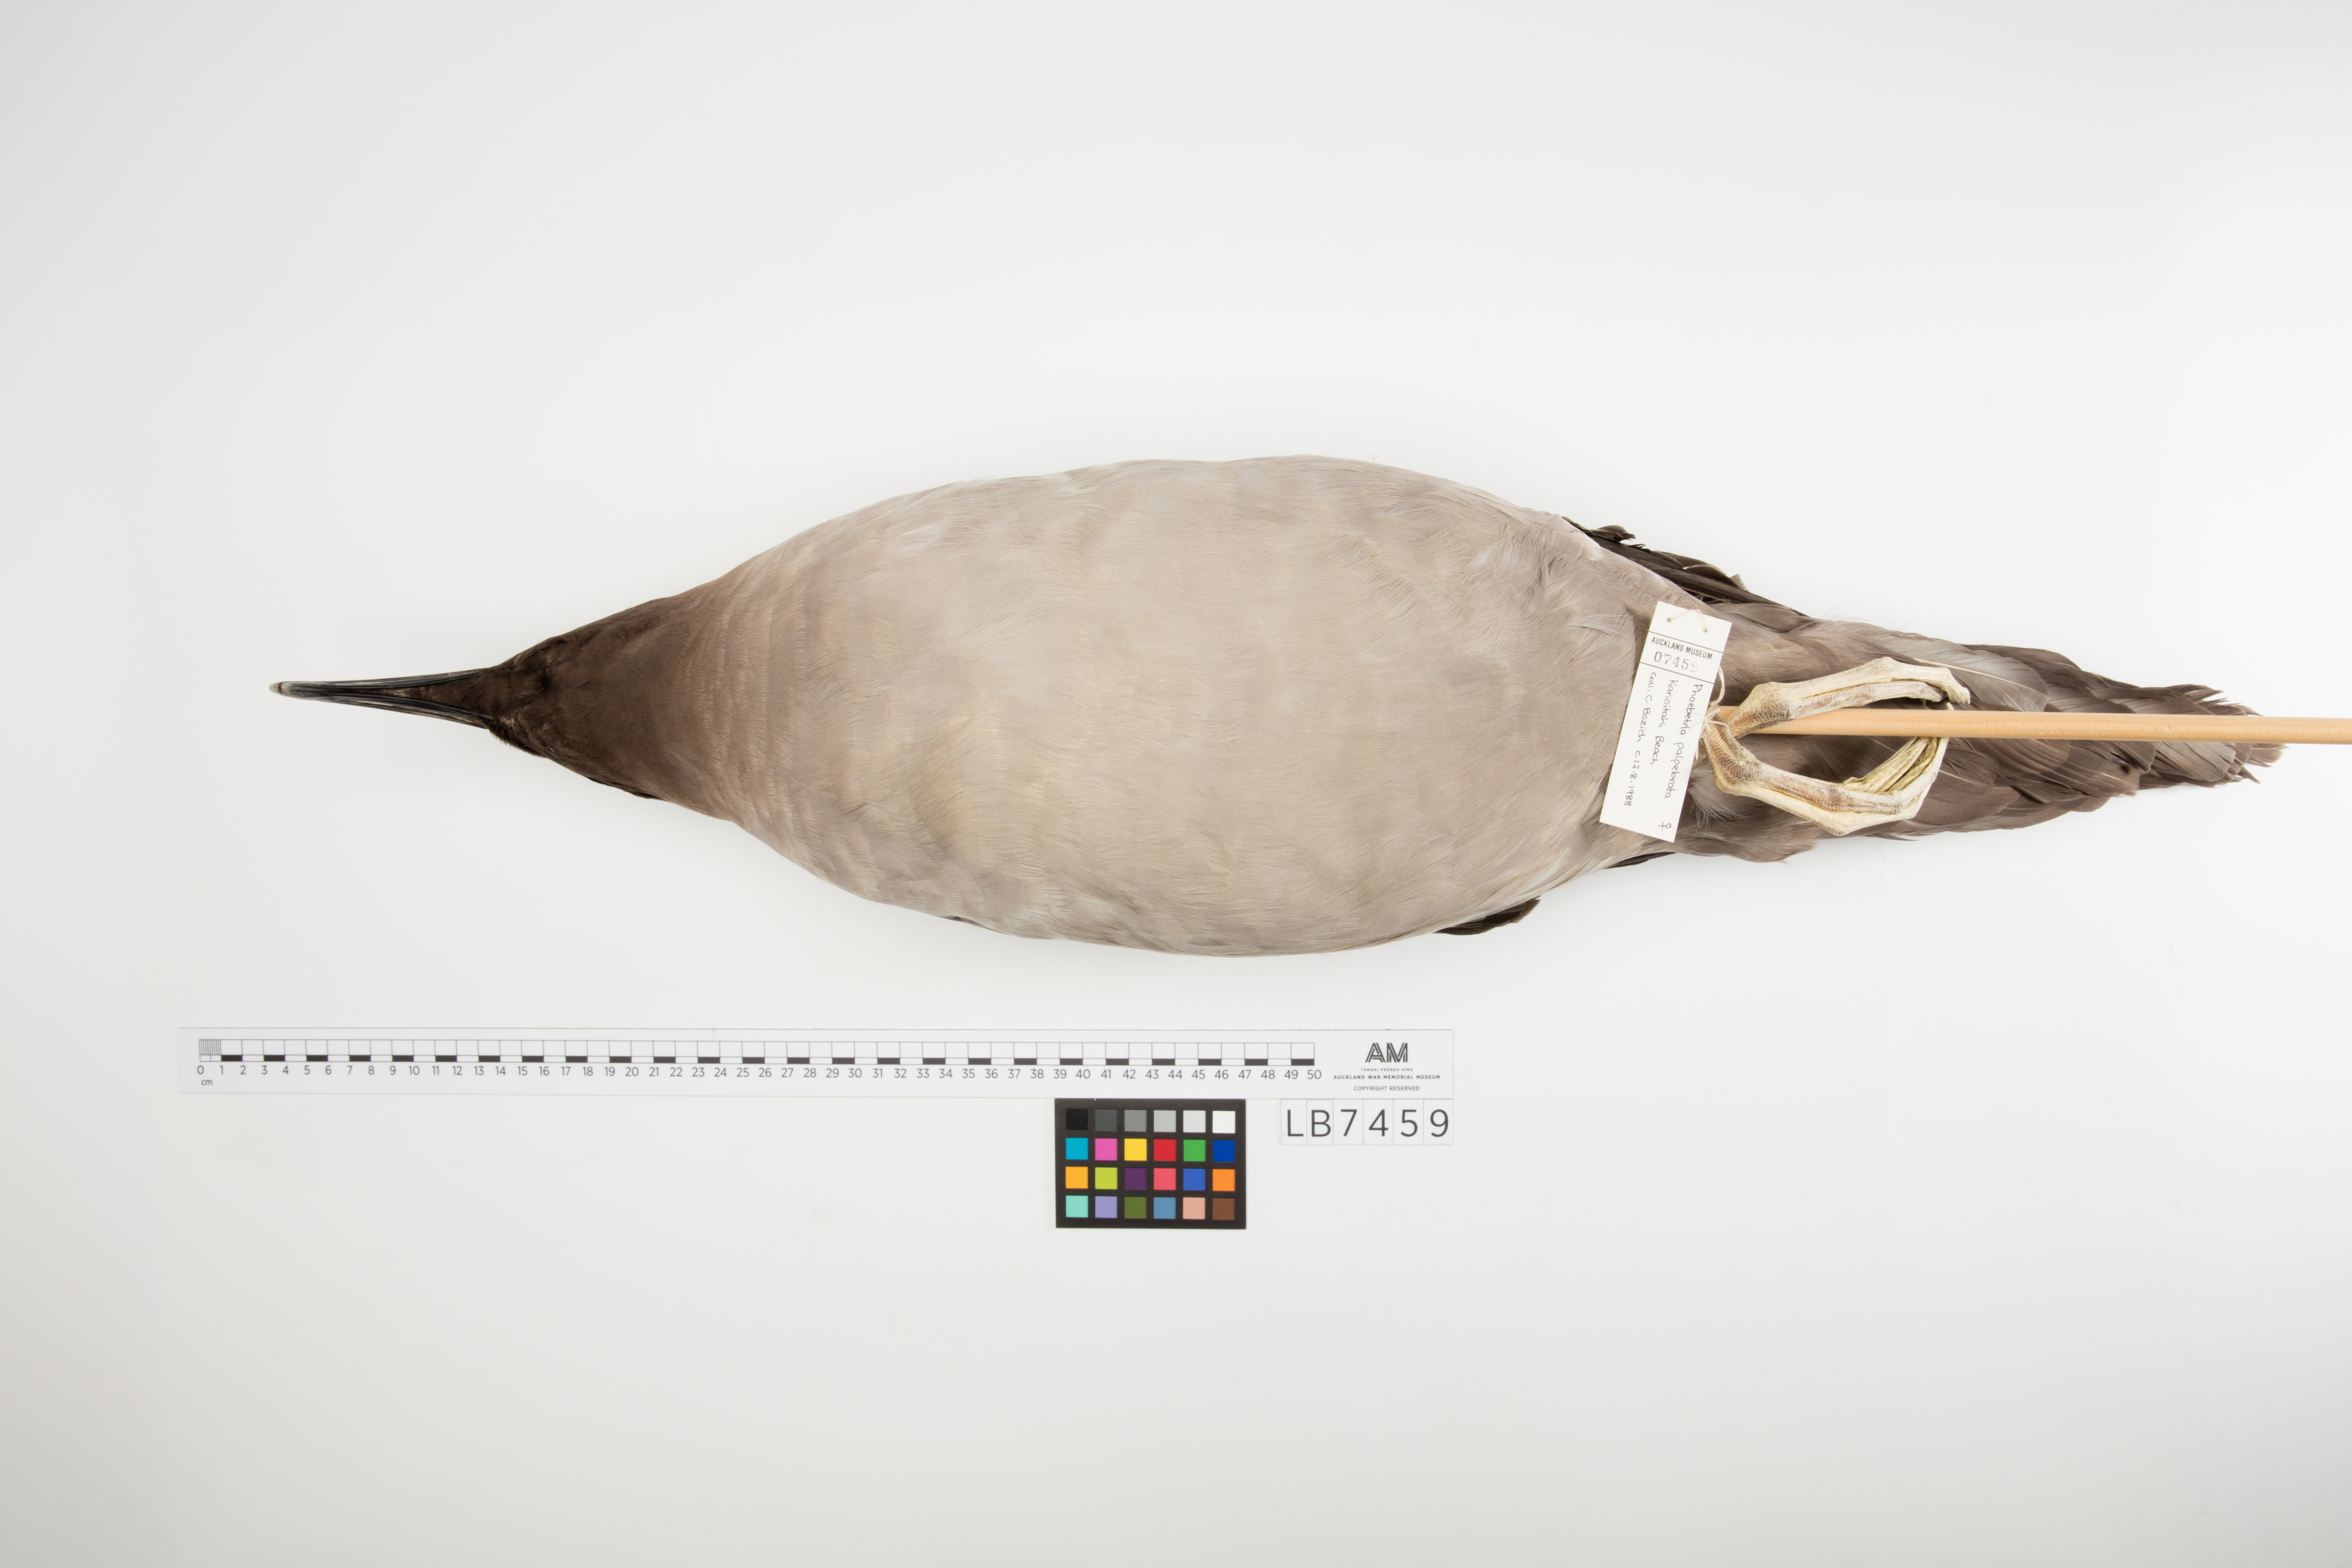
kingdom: Animalia
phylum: Chordata
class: Aves
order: Procellariiformes
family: Diomedeidae
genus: Phoebetria
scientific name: Phoebetria palpebrata
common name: Light-mantled albatross
